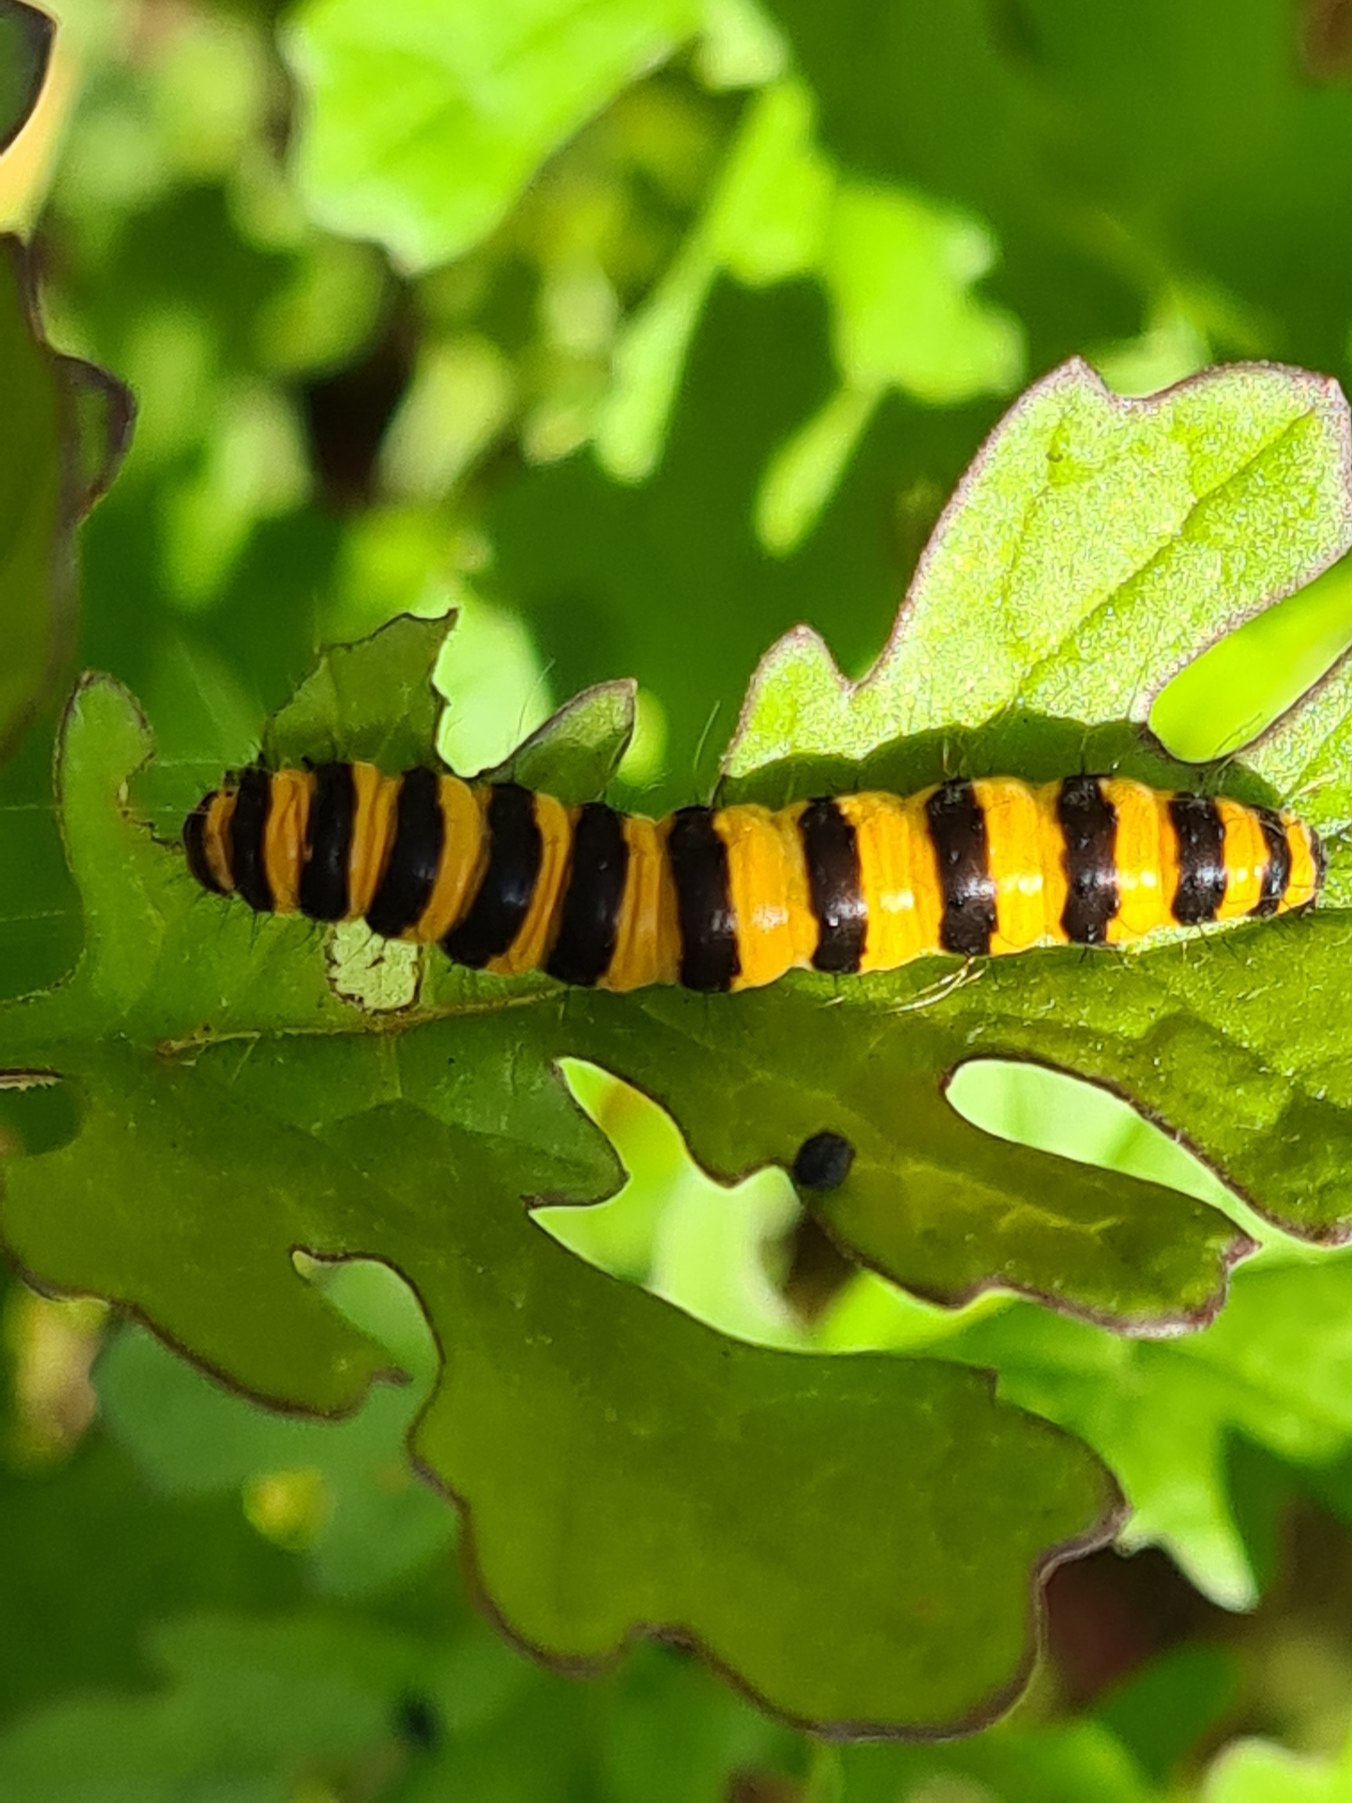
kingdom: Animalia
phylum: Arthropoda
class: Insecta
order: Lepidoptera
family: Erebidae
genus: Tyria
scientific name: Tyria jacobaeae
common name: Blodplet
